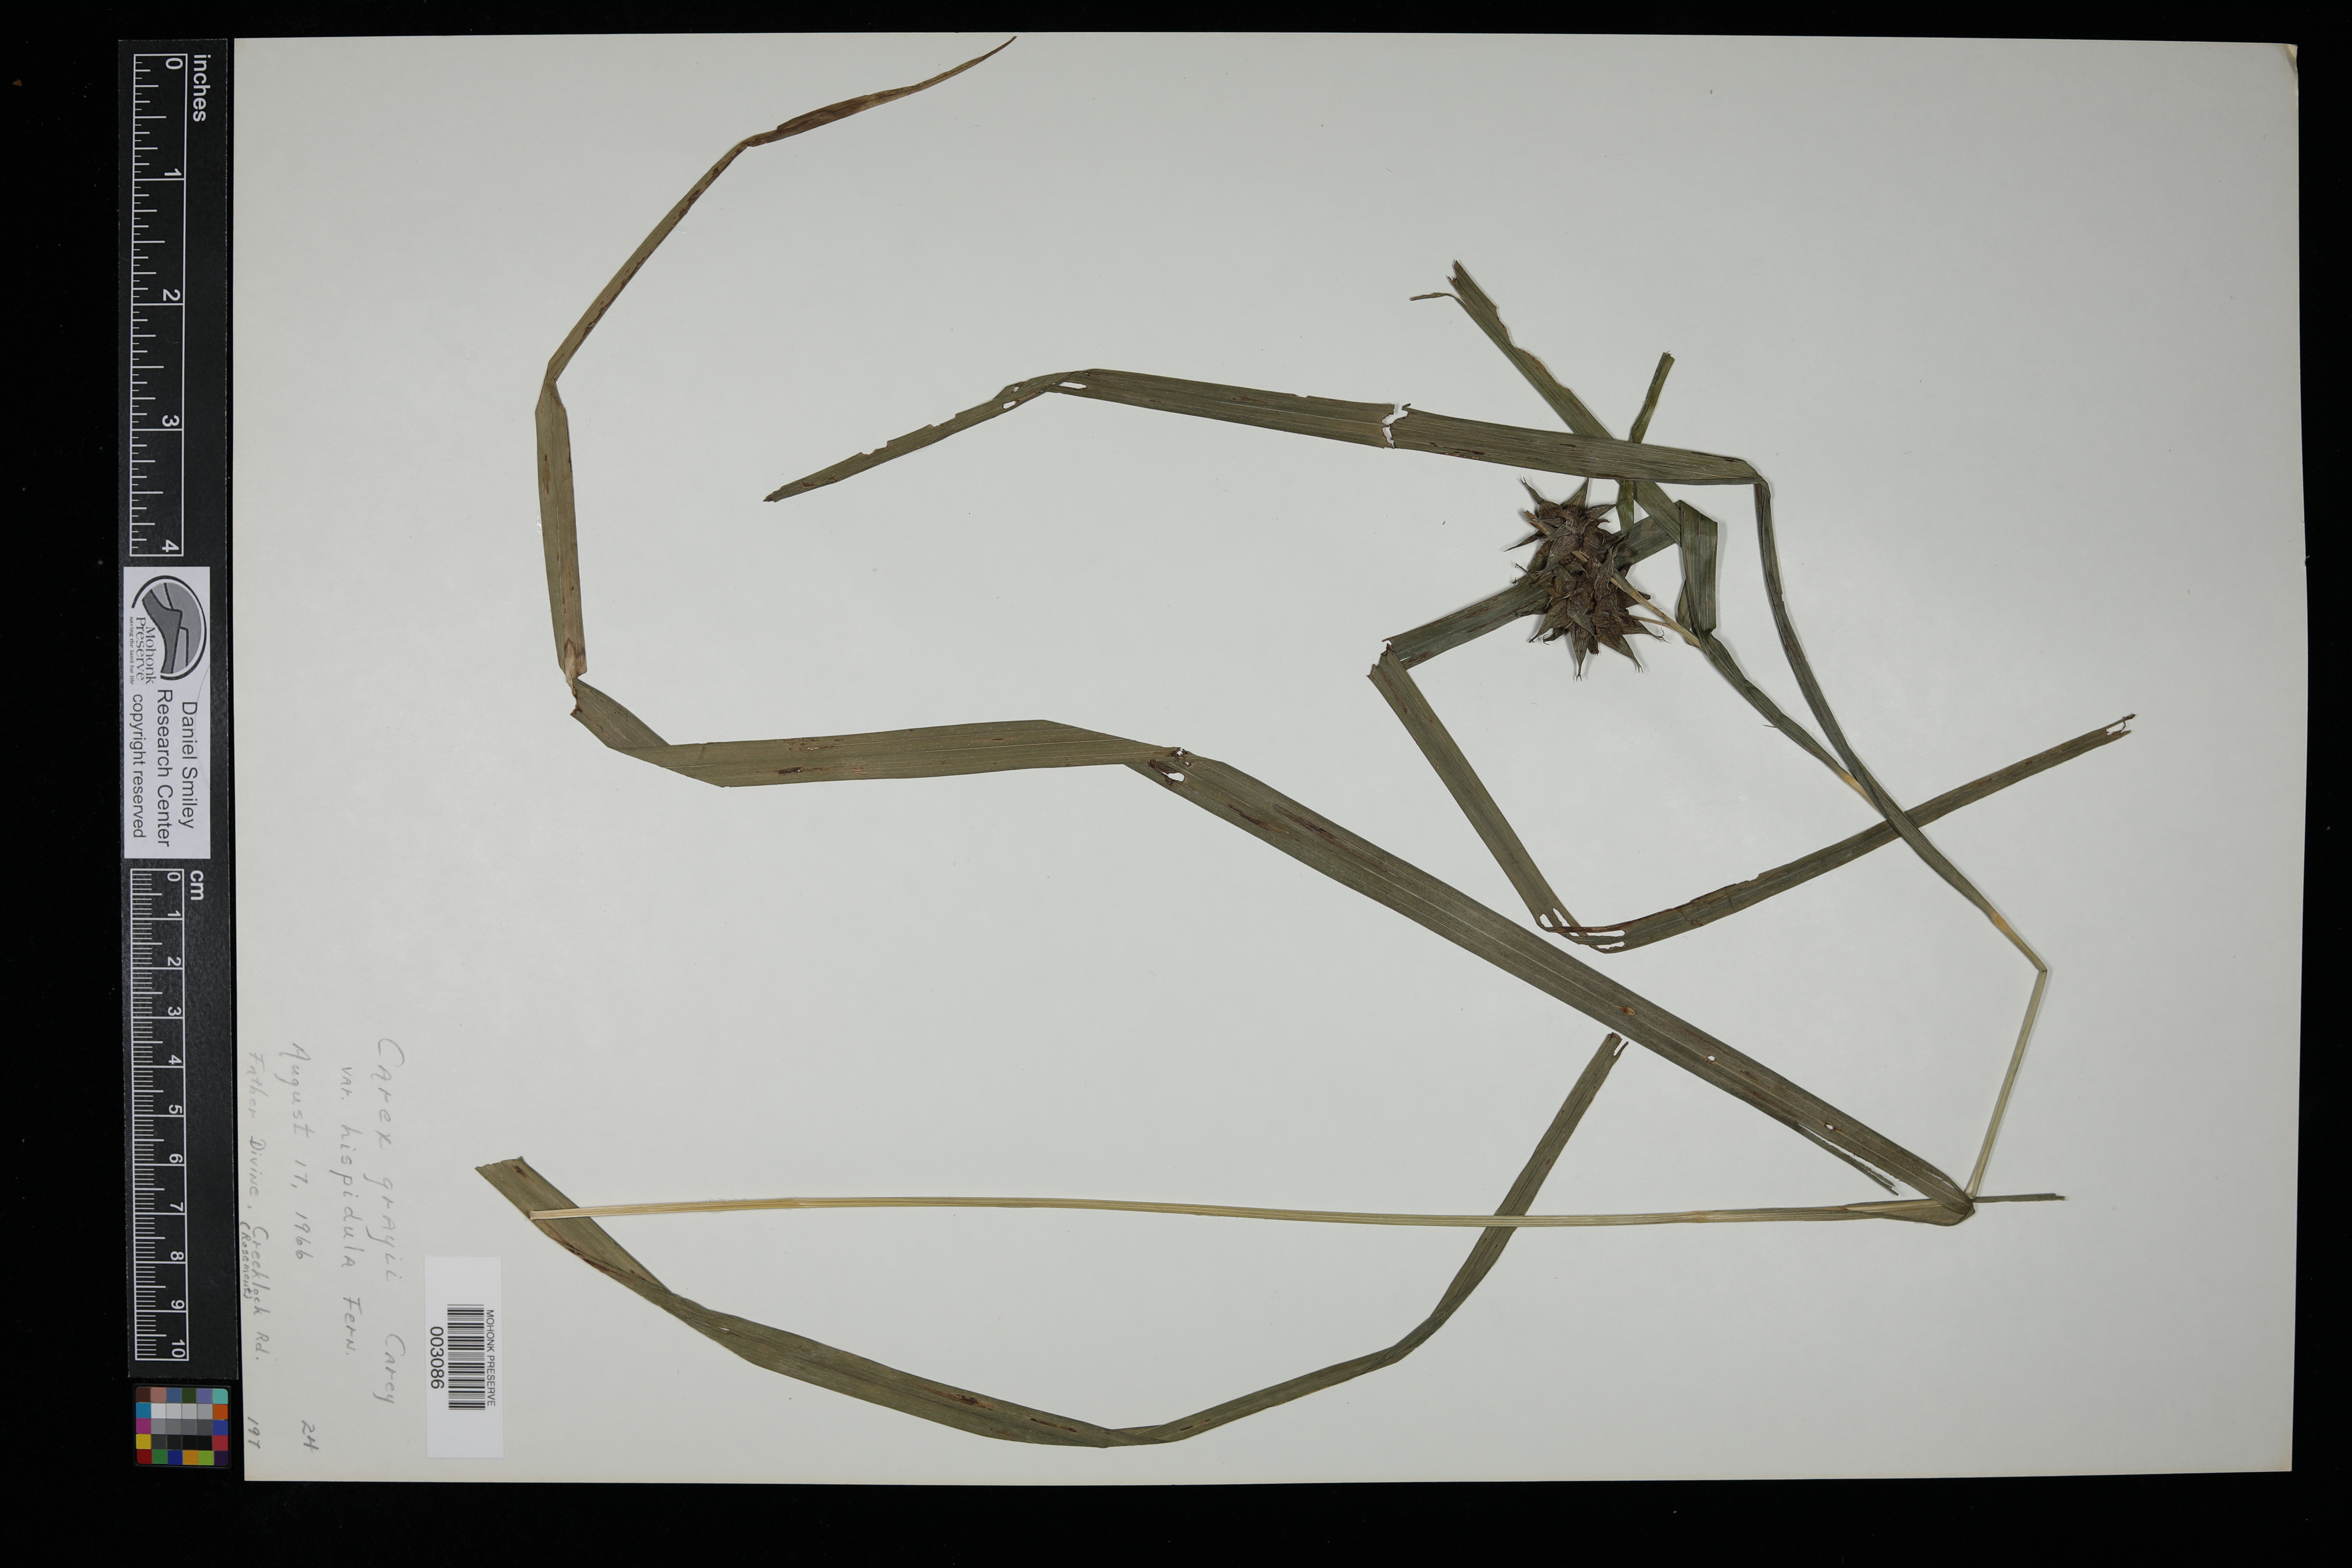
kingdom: Plantae
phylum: Tracheophyta
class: Liliopsida
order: Poales
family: Cyperaceae
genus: Carex
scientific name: Carex grayi
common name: Asa gray's sedge
